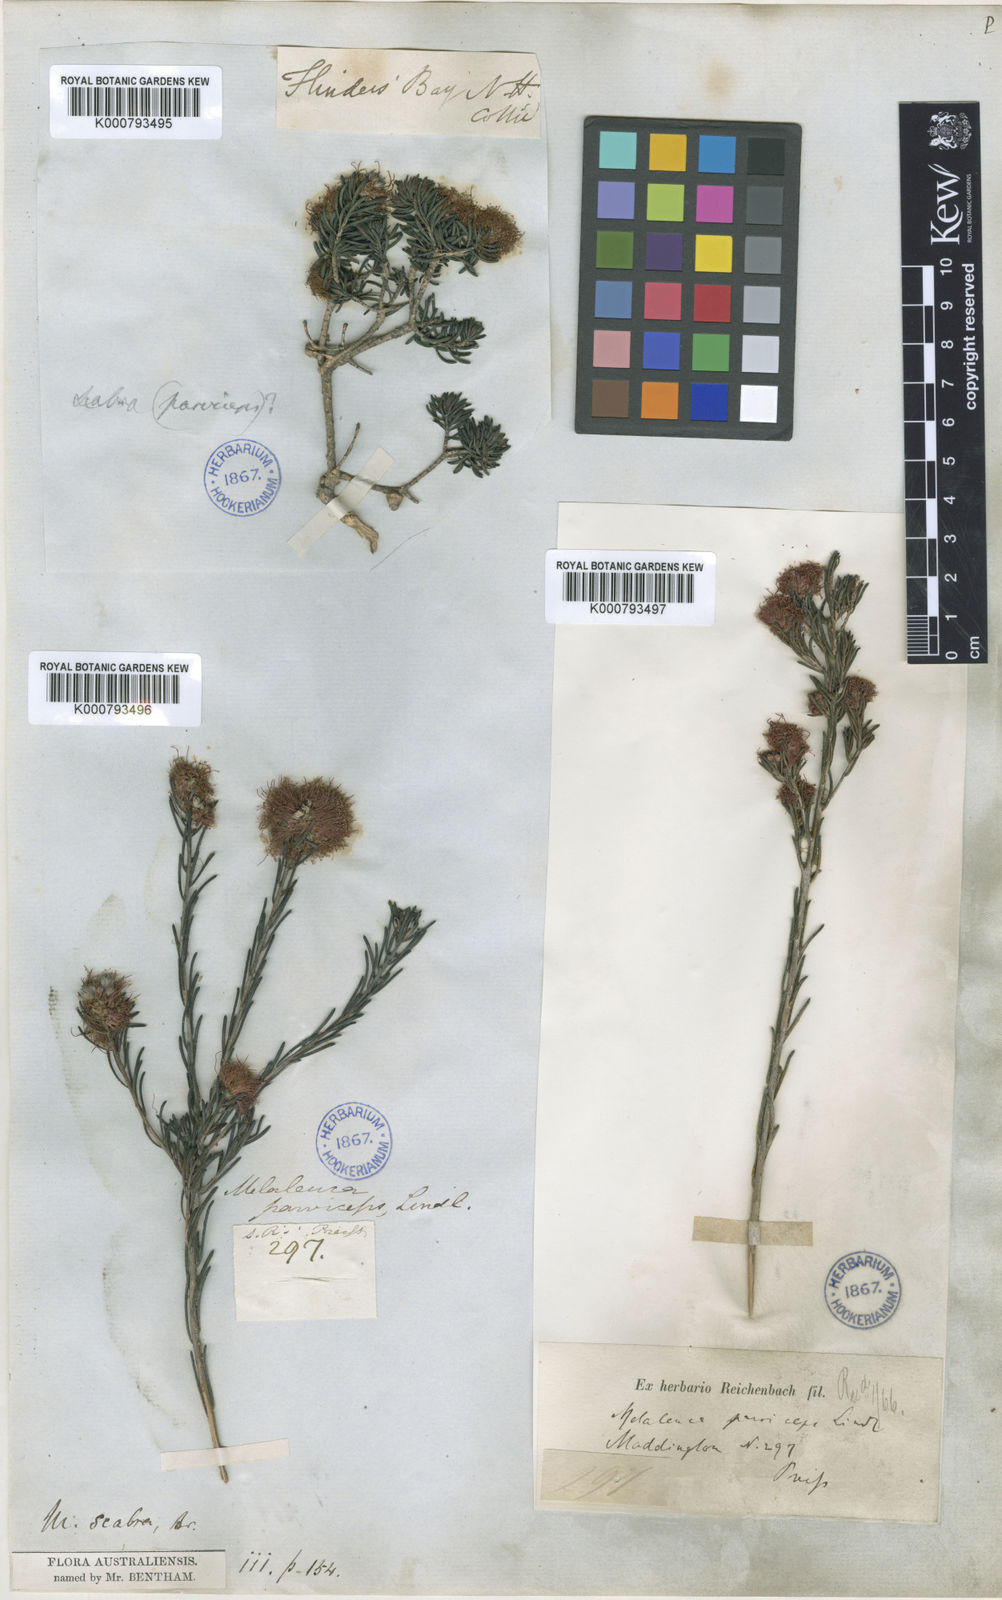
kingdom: Plantae
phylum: Tracheophyta
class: Magnoliopsida
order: Myrtales
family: Myrtaceae
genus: Melaleuca
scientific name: Melaleuca scabra
